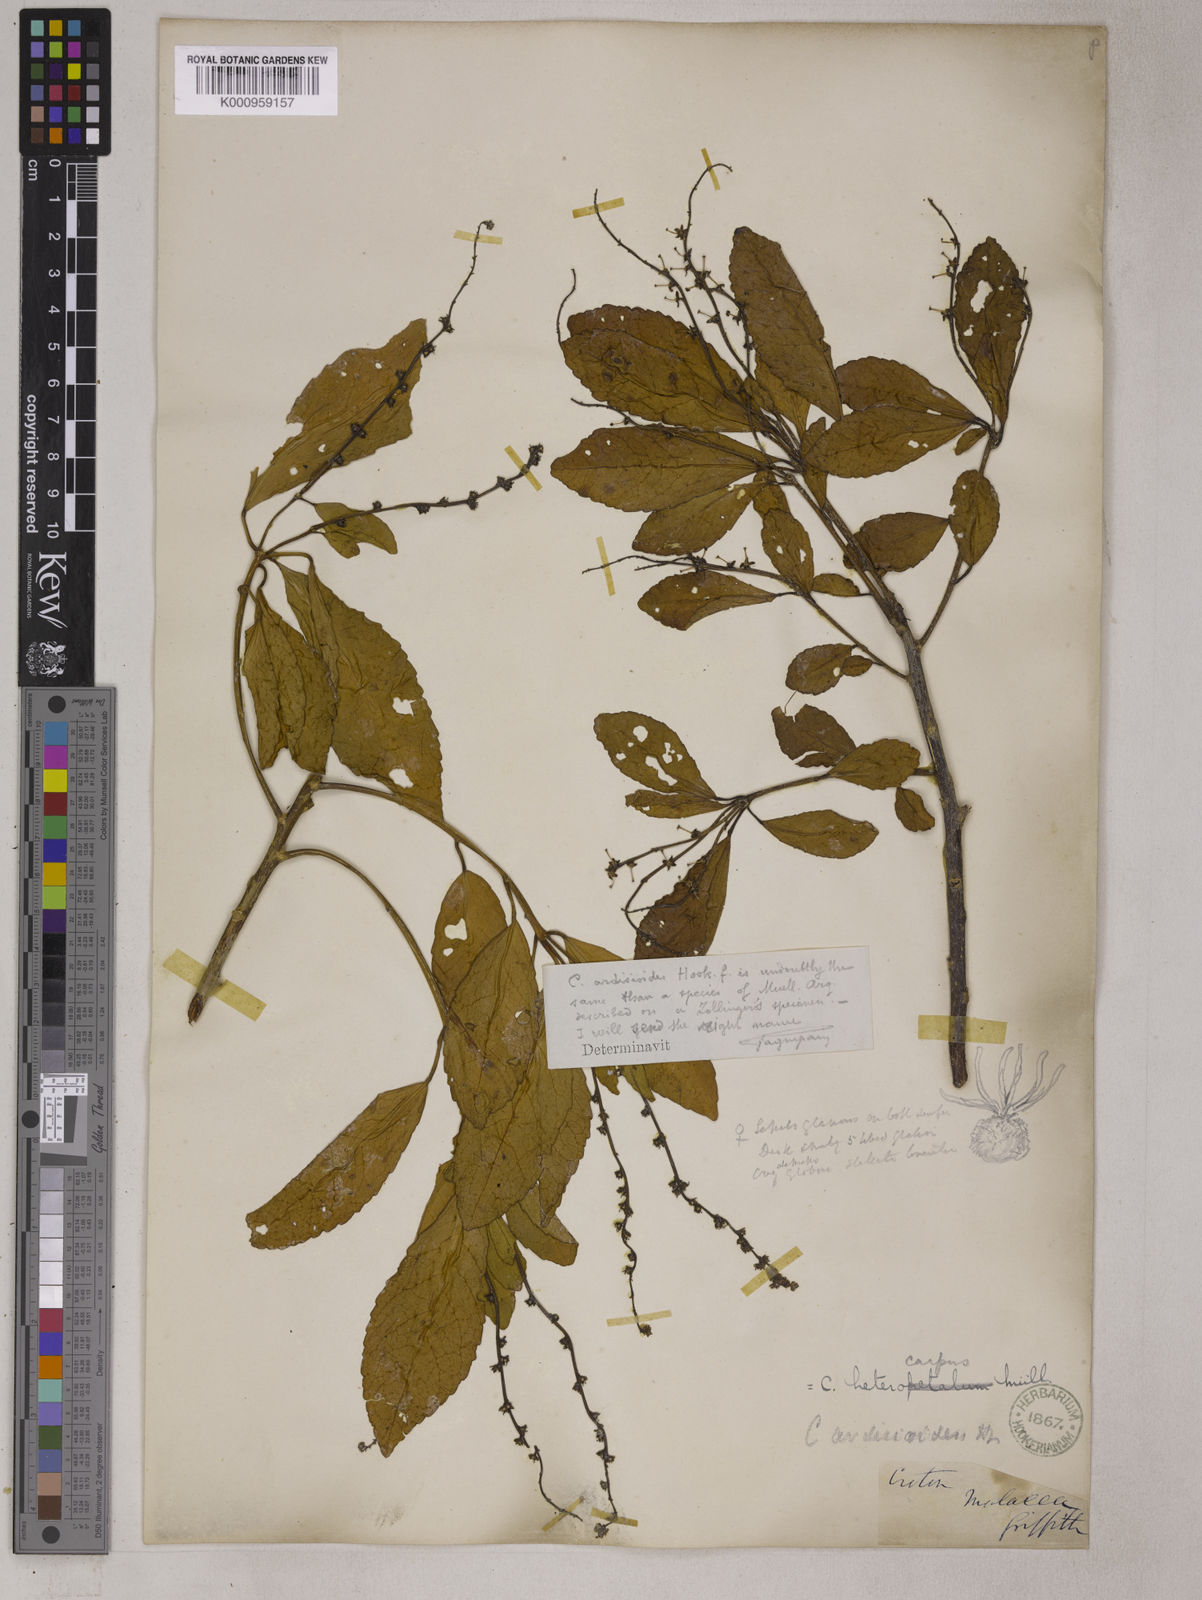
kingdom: Plantae
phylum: Tracheophyta
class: Magnoliopsida
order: Malpighiales
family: Euphorbiaceae
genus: Croton
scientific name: Croton
